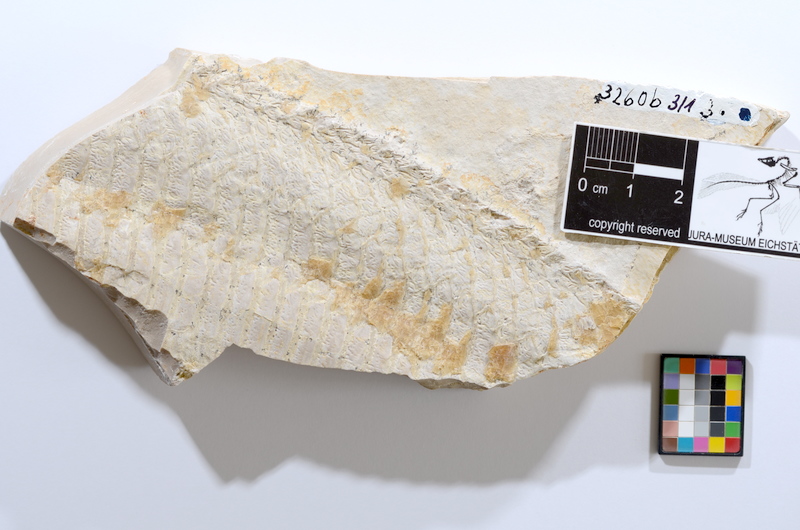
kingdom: Animalia
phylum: Chordata
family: Aspidorhynchidae
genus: Aspidorhynchus
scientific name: Aspidorhynchus acutirostris
